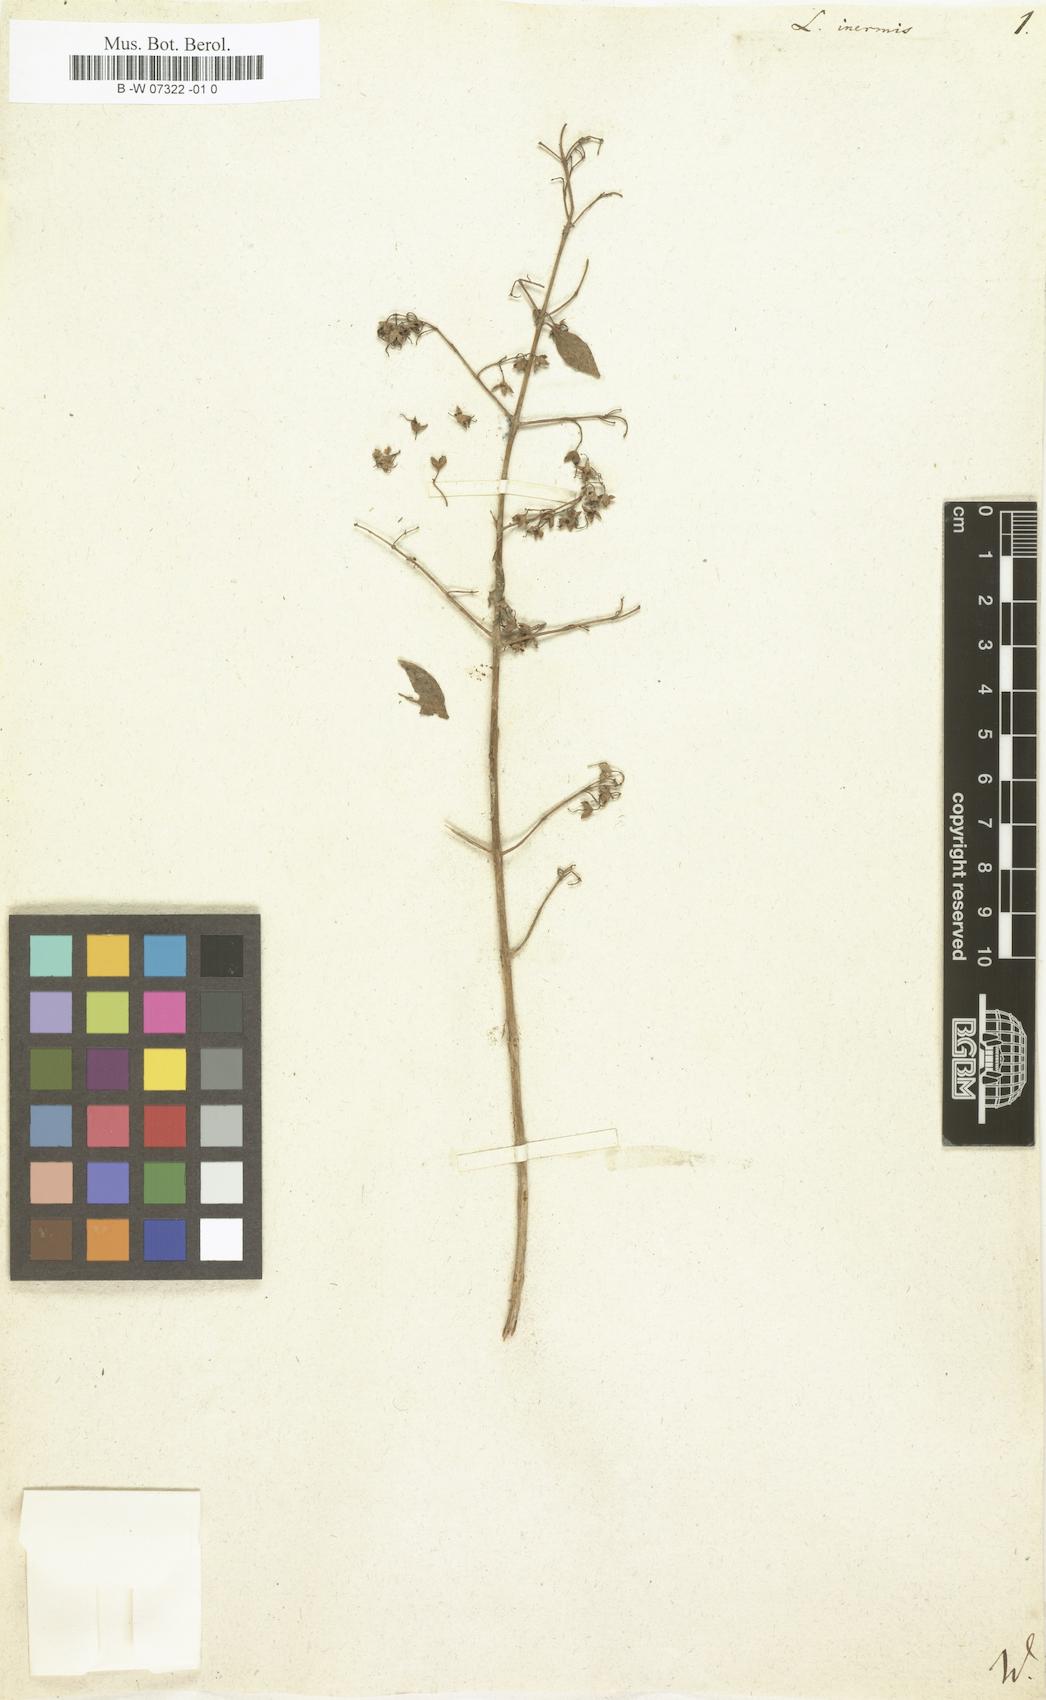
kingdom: Plantae
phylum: Tracheophyta
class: Magnoliopsida
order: Myrtales
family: Lythraceae
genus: Lawsonia
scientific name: Lawsonia inermis
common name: Henna
